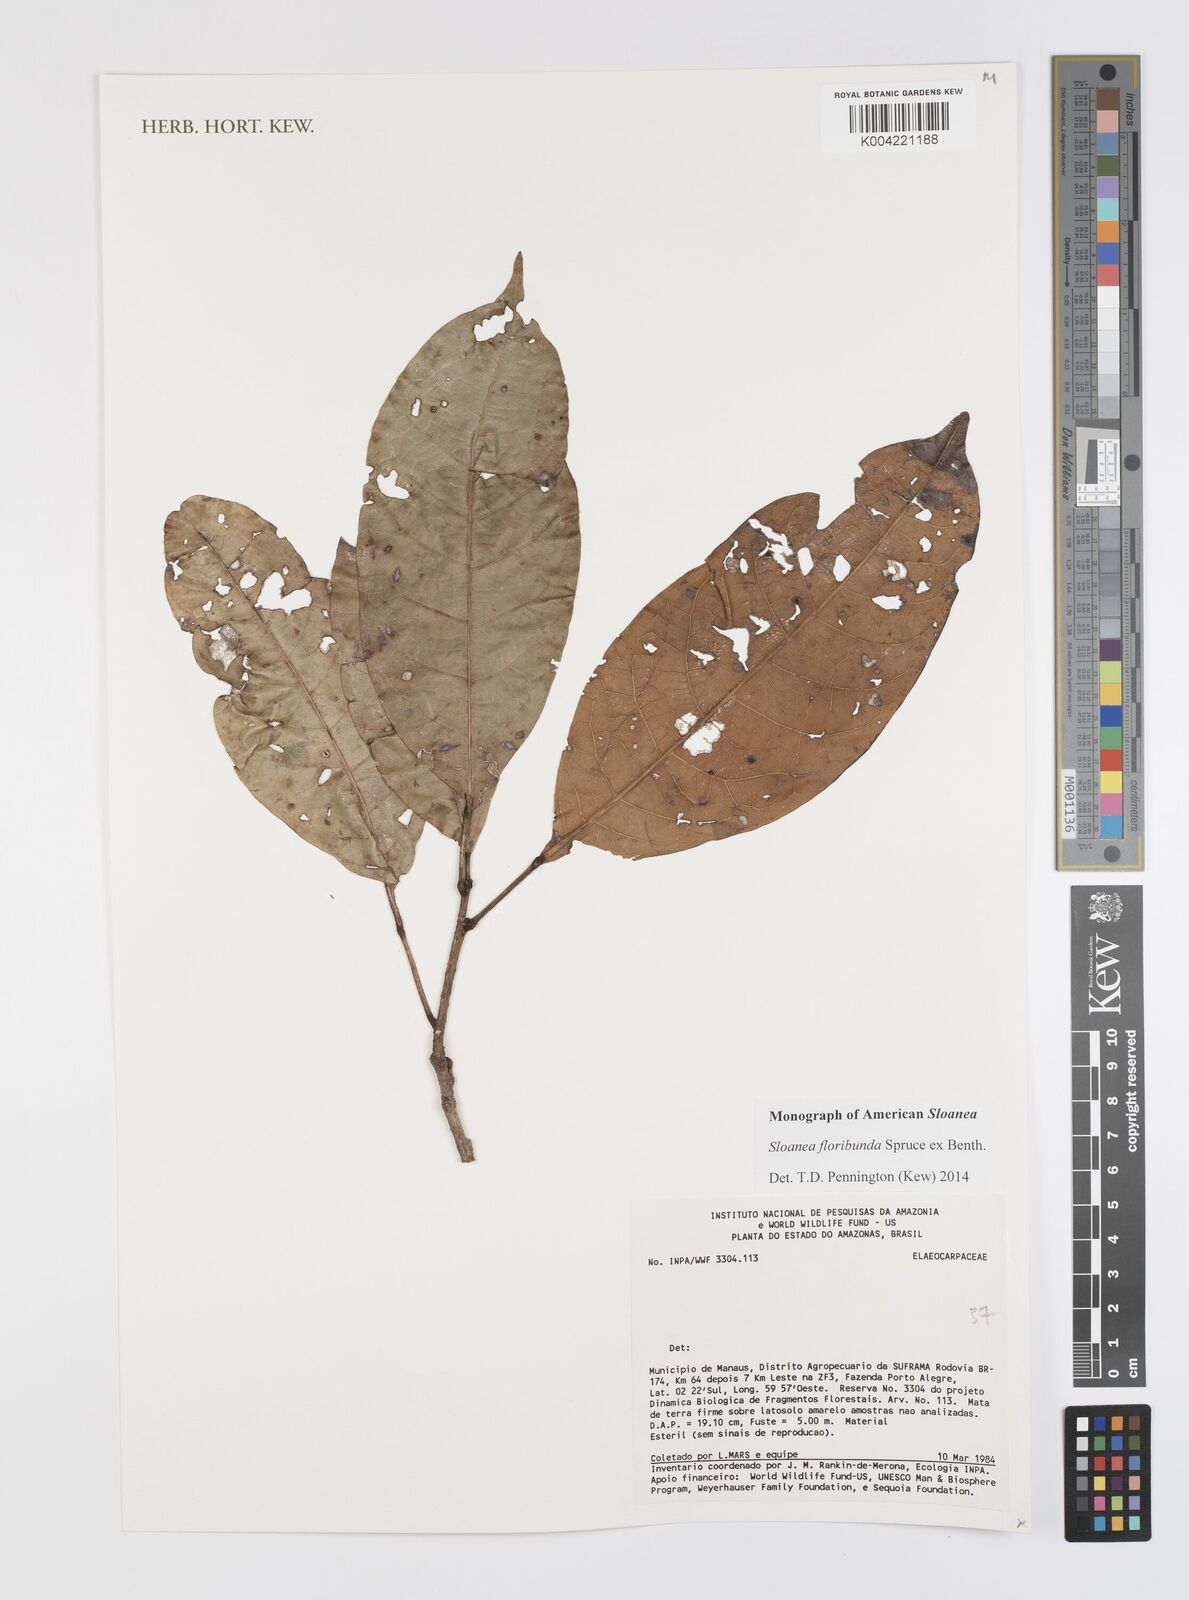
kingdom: Plantae
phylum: Tracheophyta
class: Magnoliopsida
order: Oxalidales
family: Elaeocarpaceae
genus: Sloanea
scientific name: Sloanea floribunda
